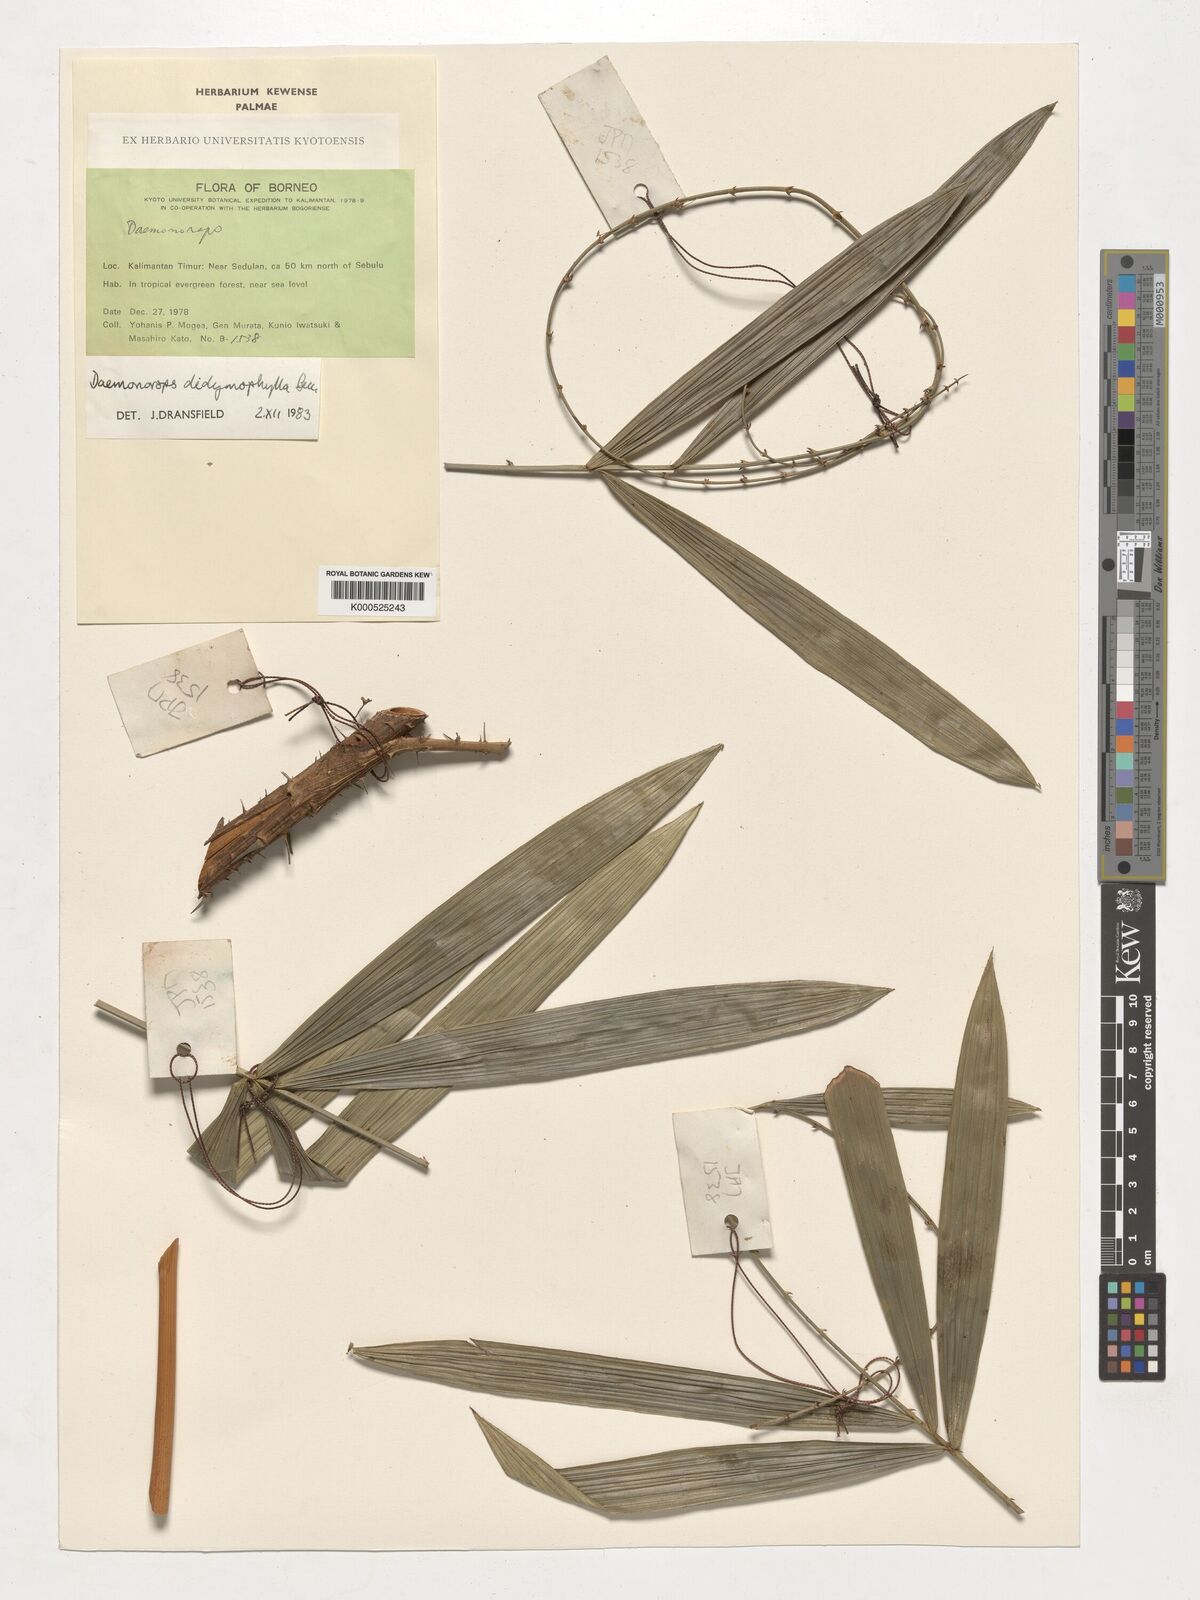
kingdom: Plantae
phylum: Tracheophyta
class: Liliopsida
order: Arecales
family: Arecaceae
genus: Calamus
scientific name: Calamus gracilipes
